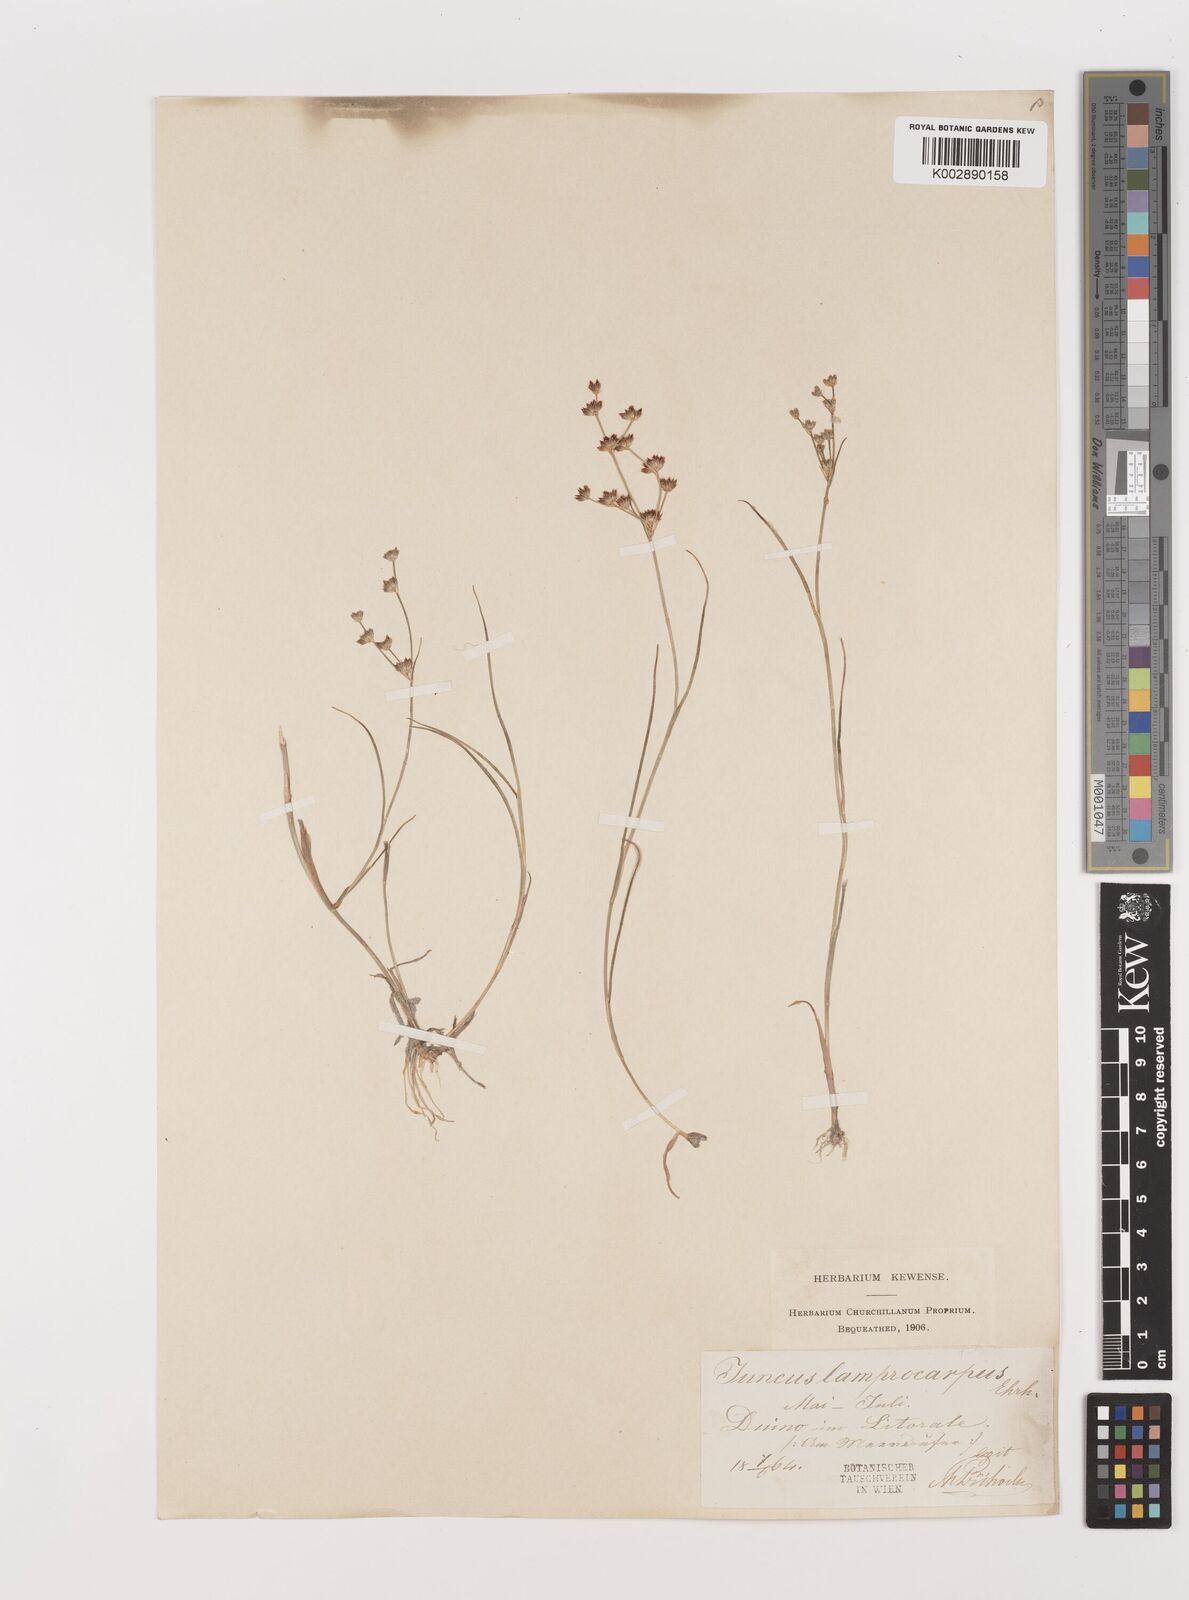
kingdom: Plantae
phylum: Tracheophyta
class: Liliopsida
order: Poales
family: Juncaceae
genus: Juncus
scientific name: Juncus articulatus
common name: Jointed rush
